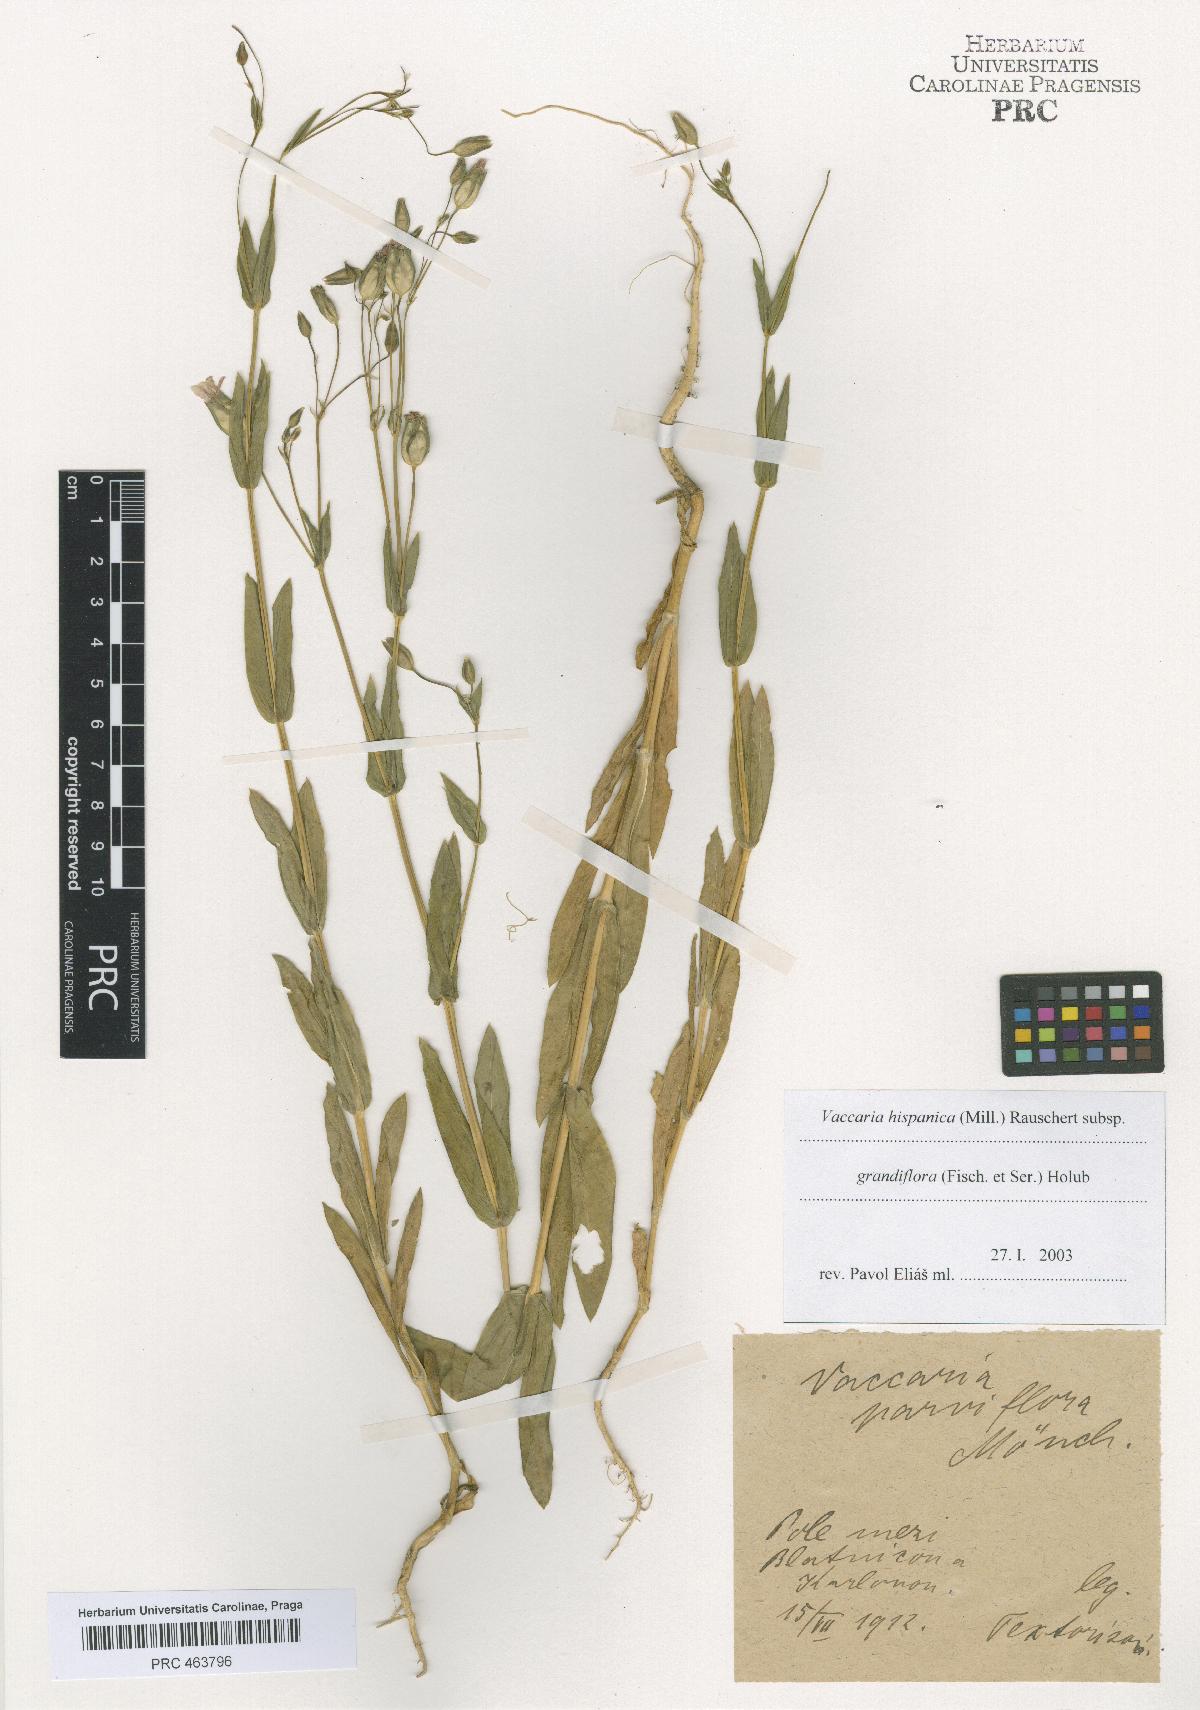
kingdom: Plantae
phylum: Tracheophyta
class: Magnoliopsida
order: Caryophyllales
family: Caryophyllaceae
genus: Gypsophila
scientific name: Gypsophila vaccaria
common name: Cow soapwort
